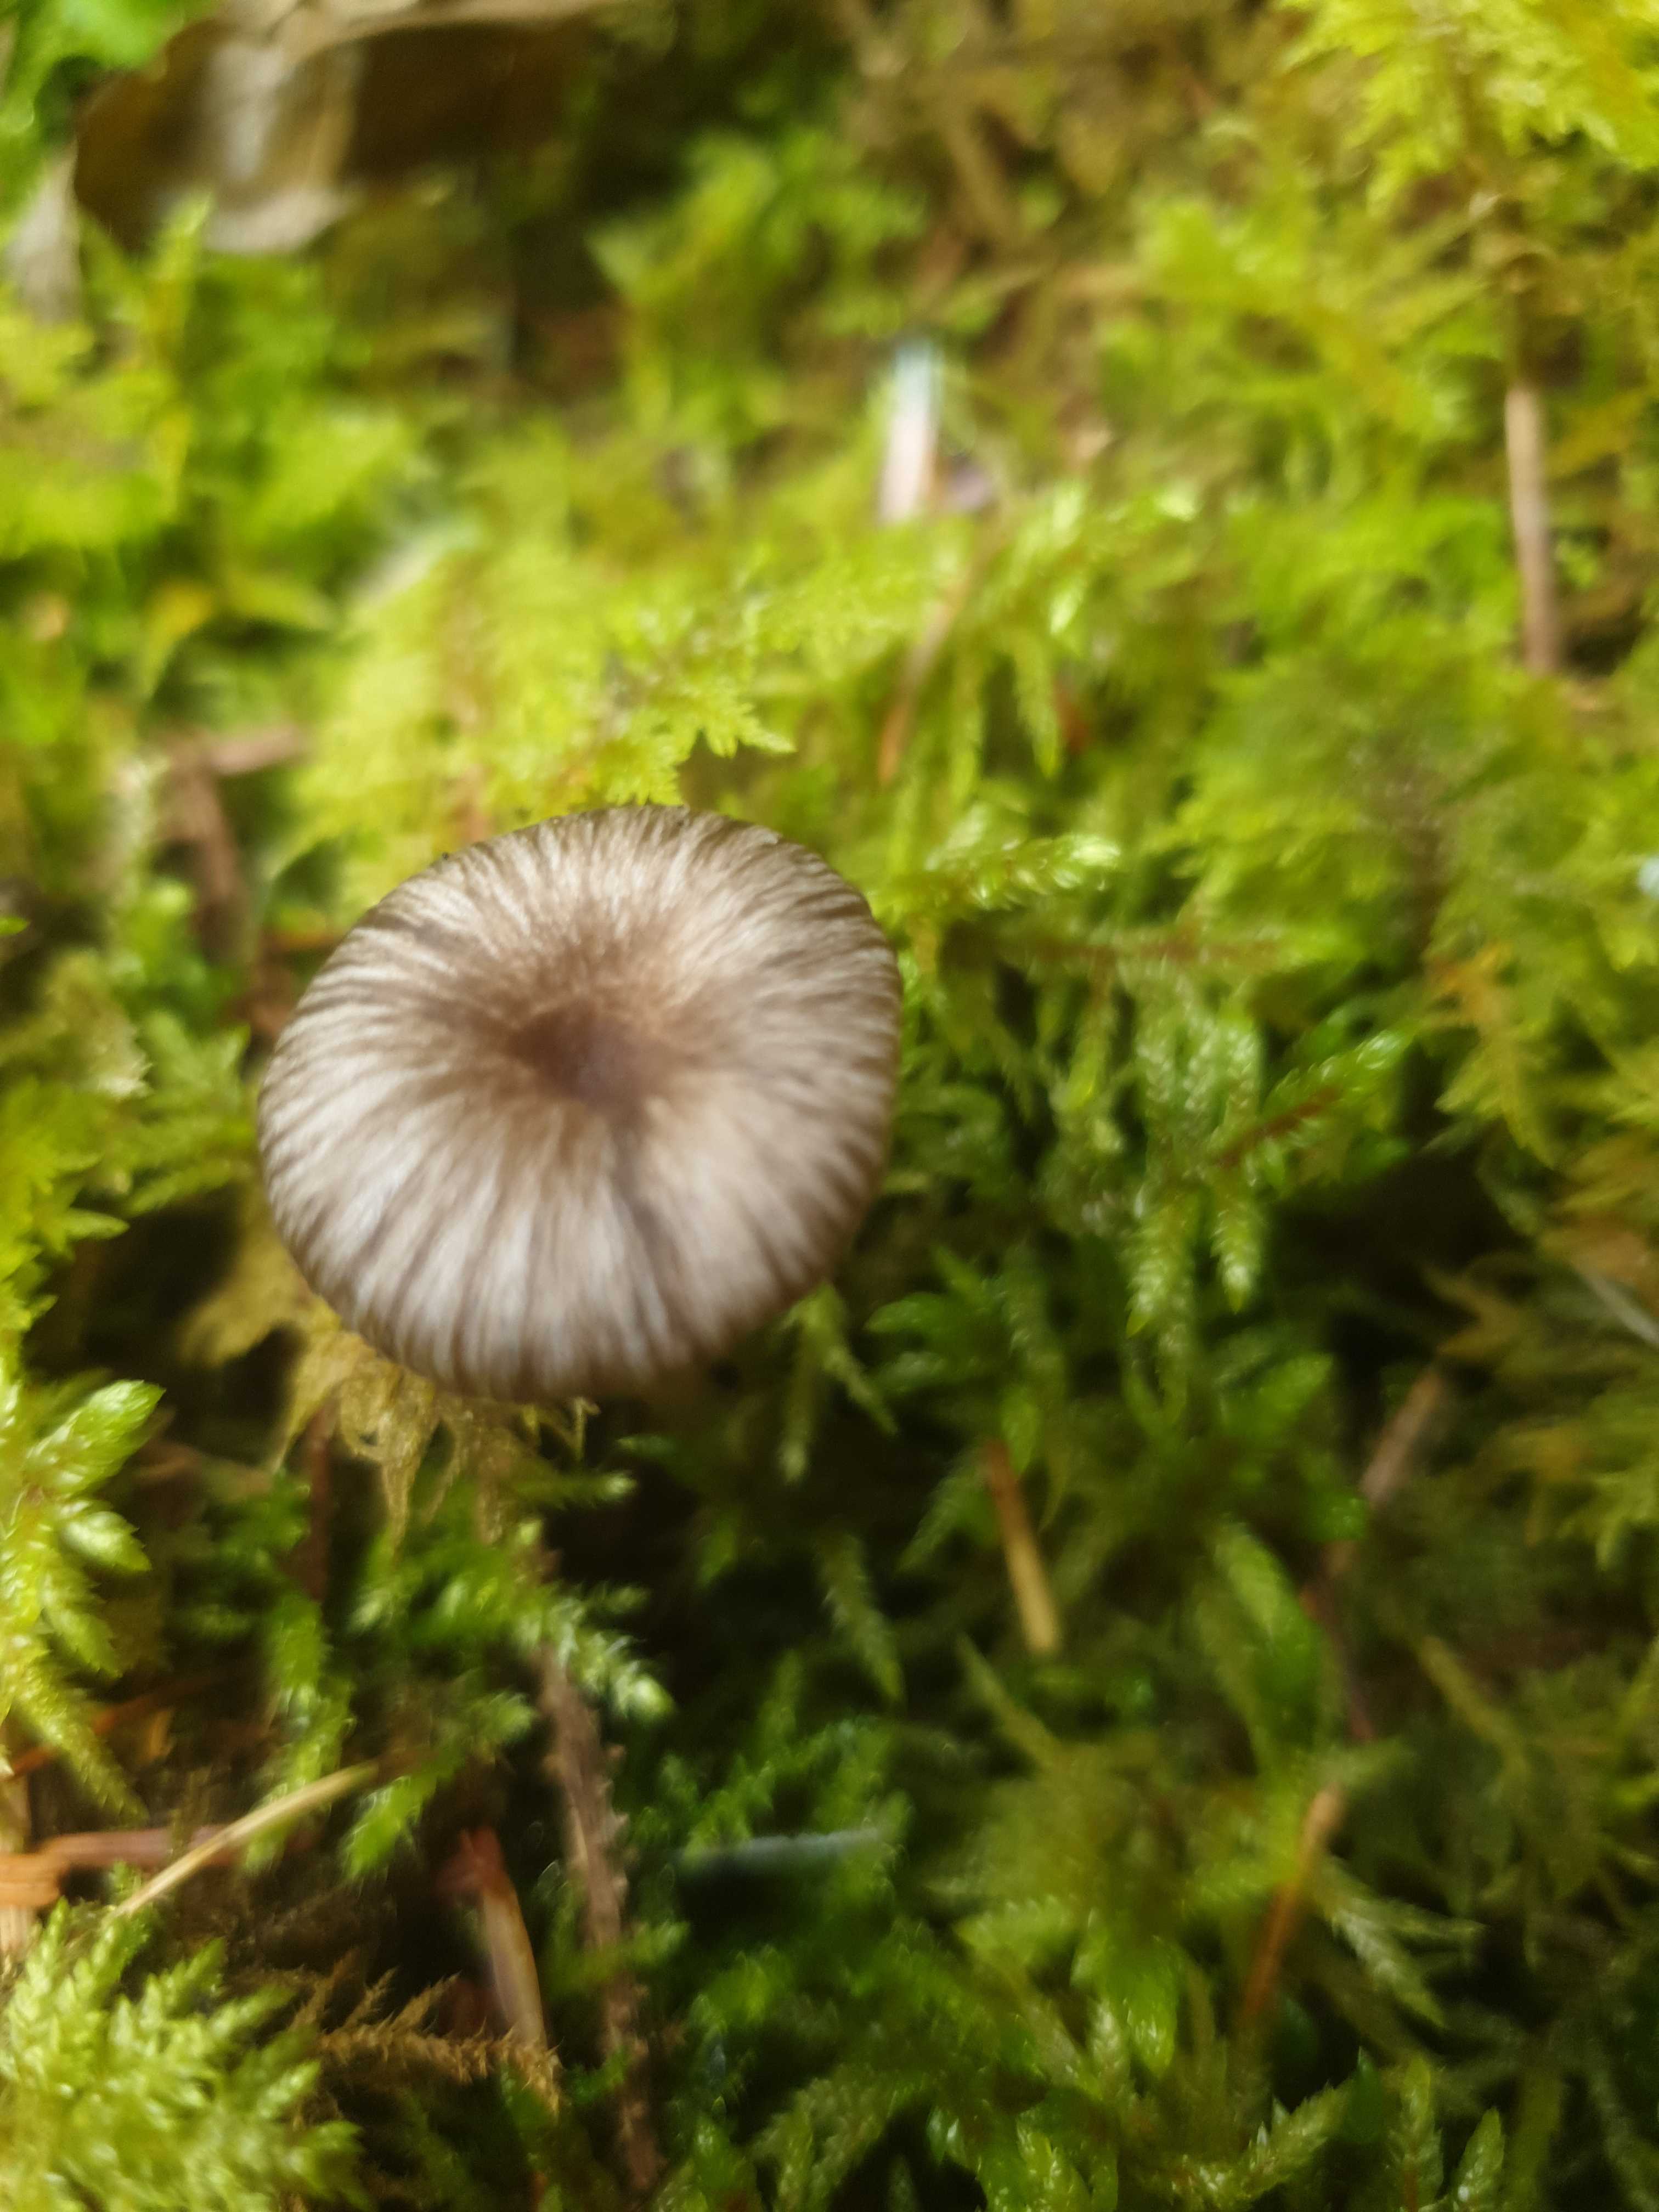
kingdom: Fungi
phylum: Basidiomycota
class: Agaricomycetes
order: Agaricales
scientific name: Agaricales
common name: champignonordenen
